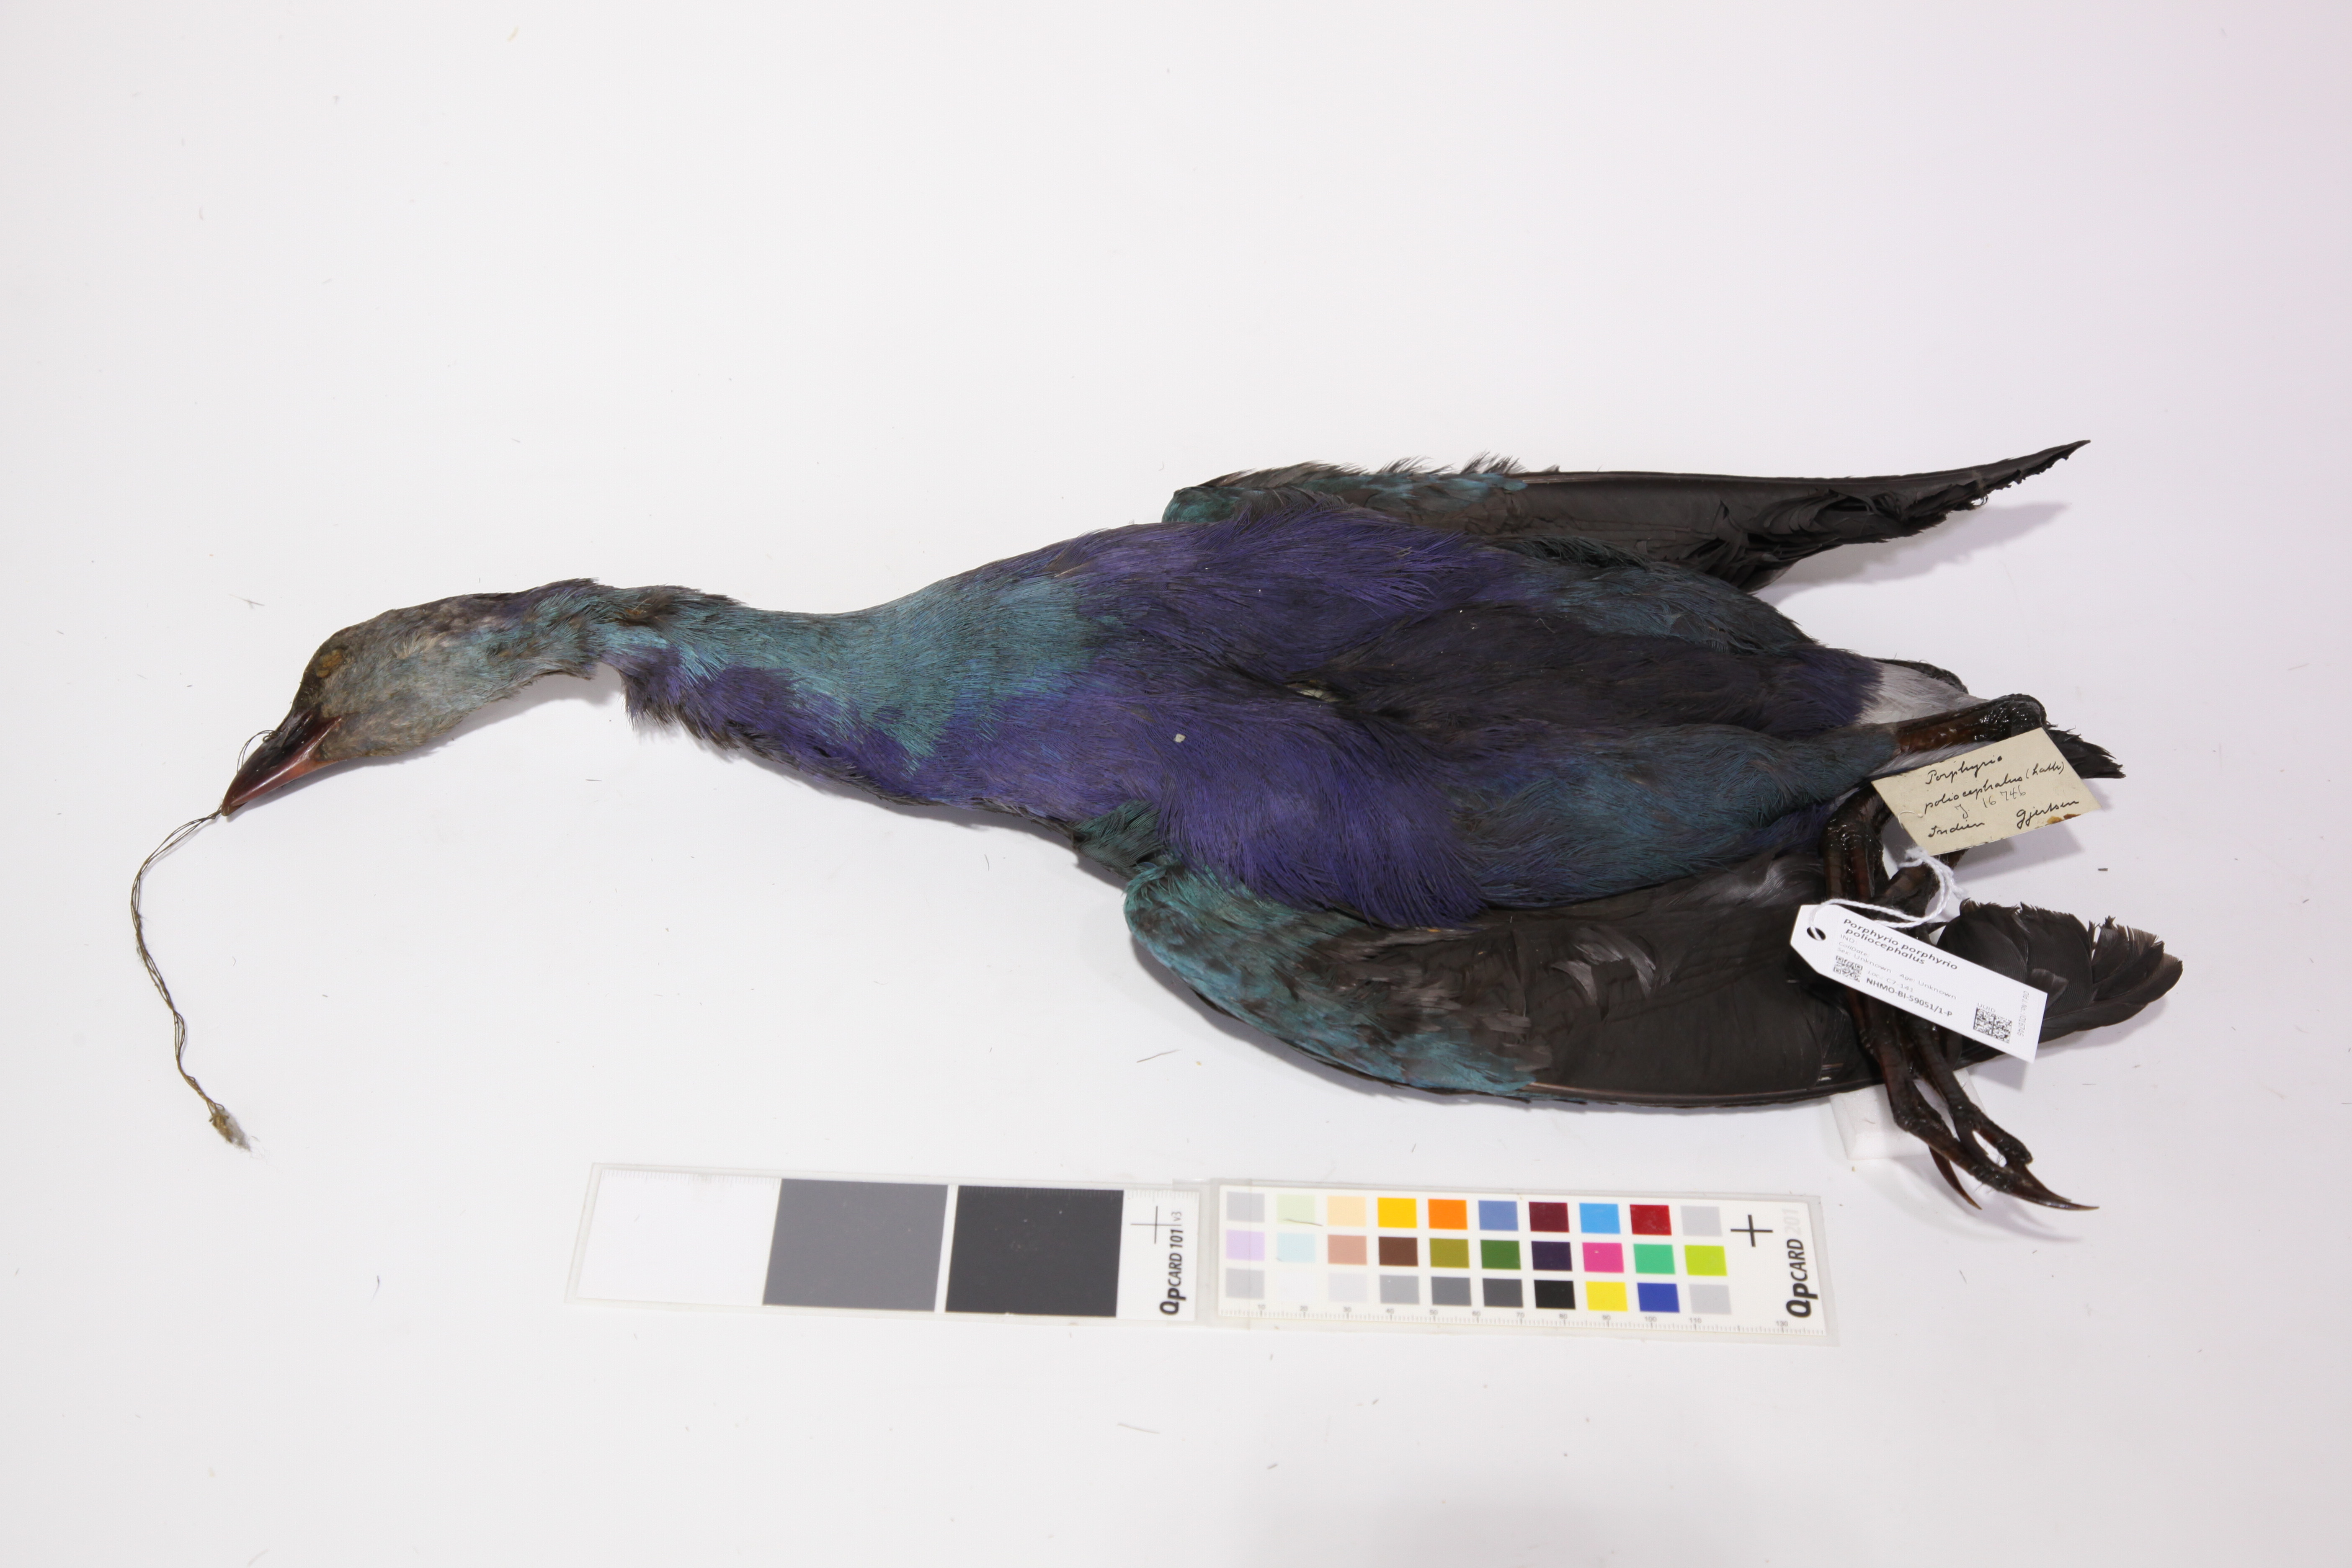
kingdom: Animalia
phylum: Chordata
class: Aves
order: Gruiformes
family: Rallidae
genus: Porphyrio
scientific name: Porphyrio porphyrio
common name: Purple swamphen
